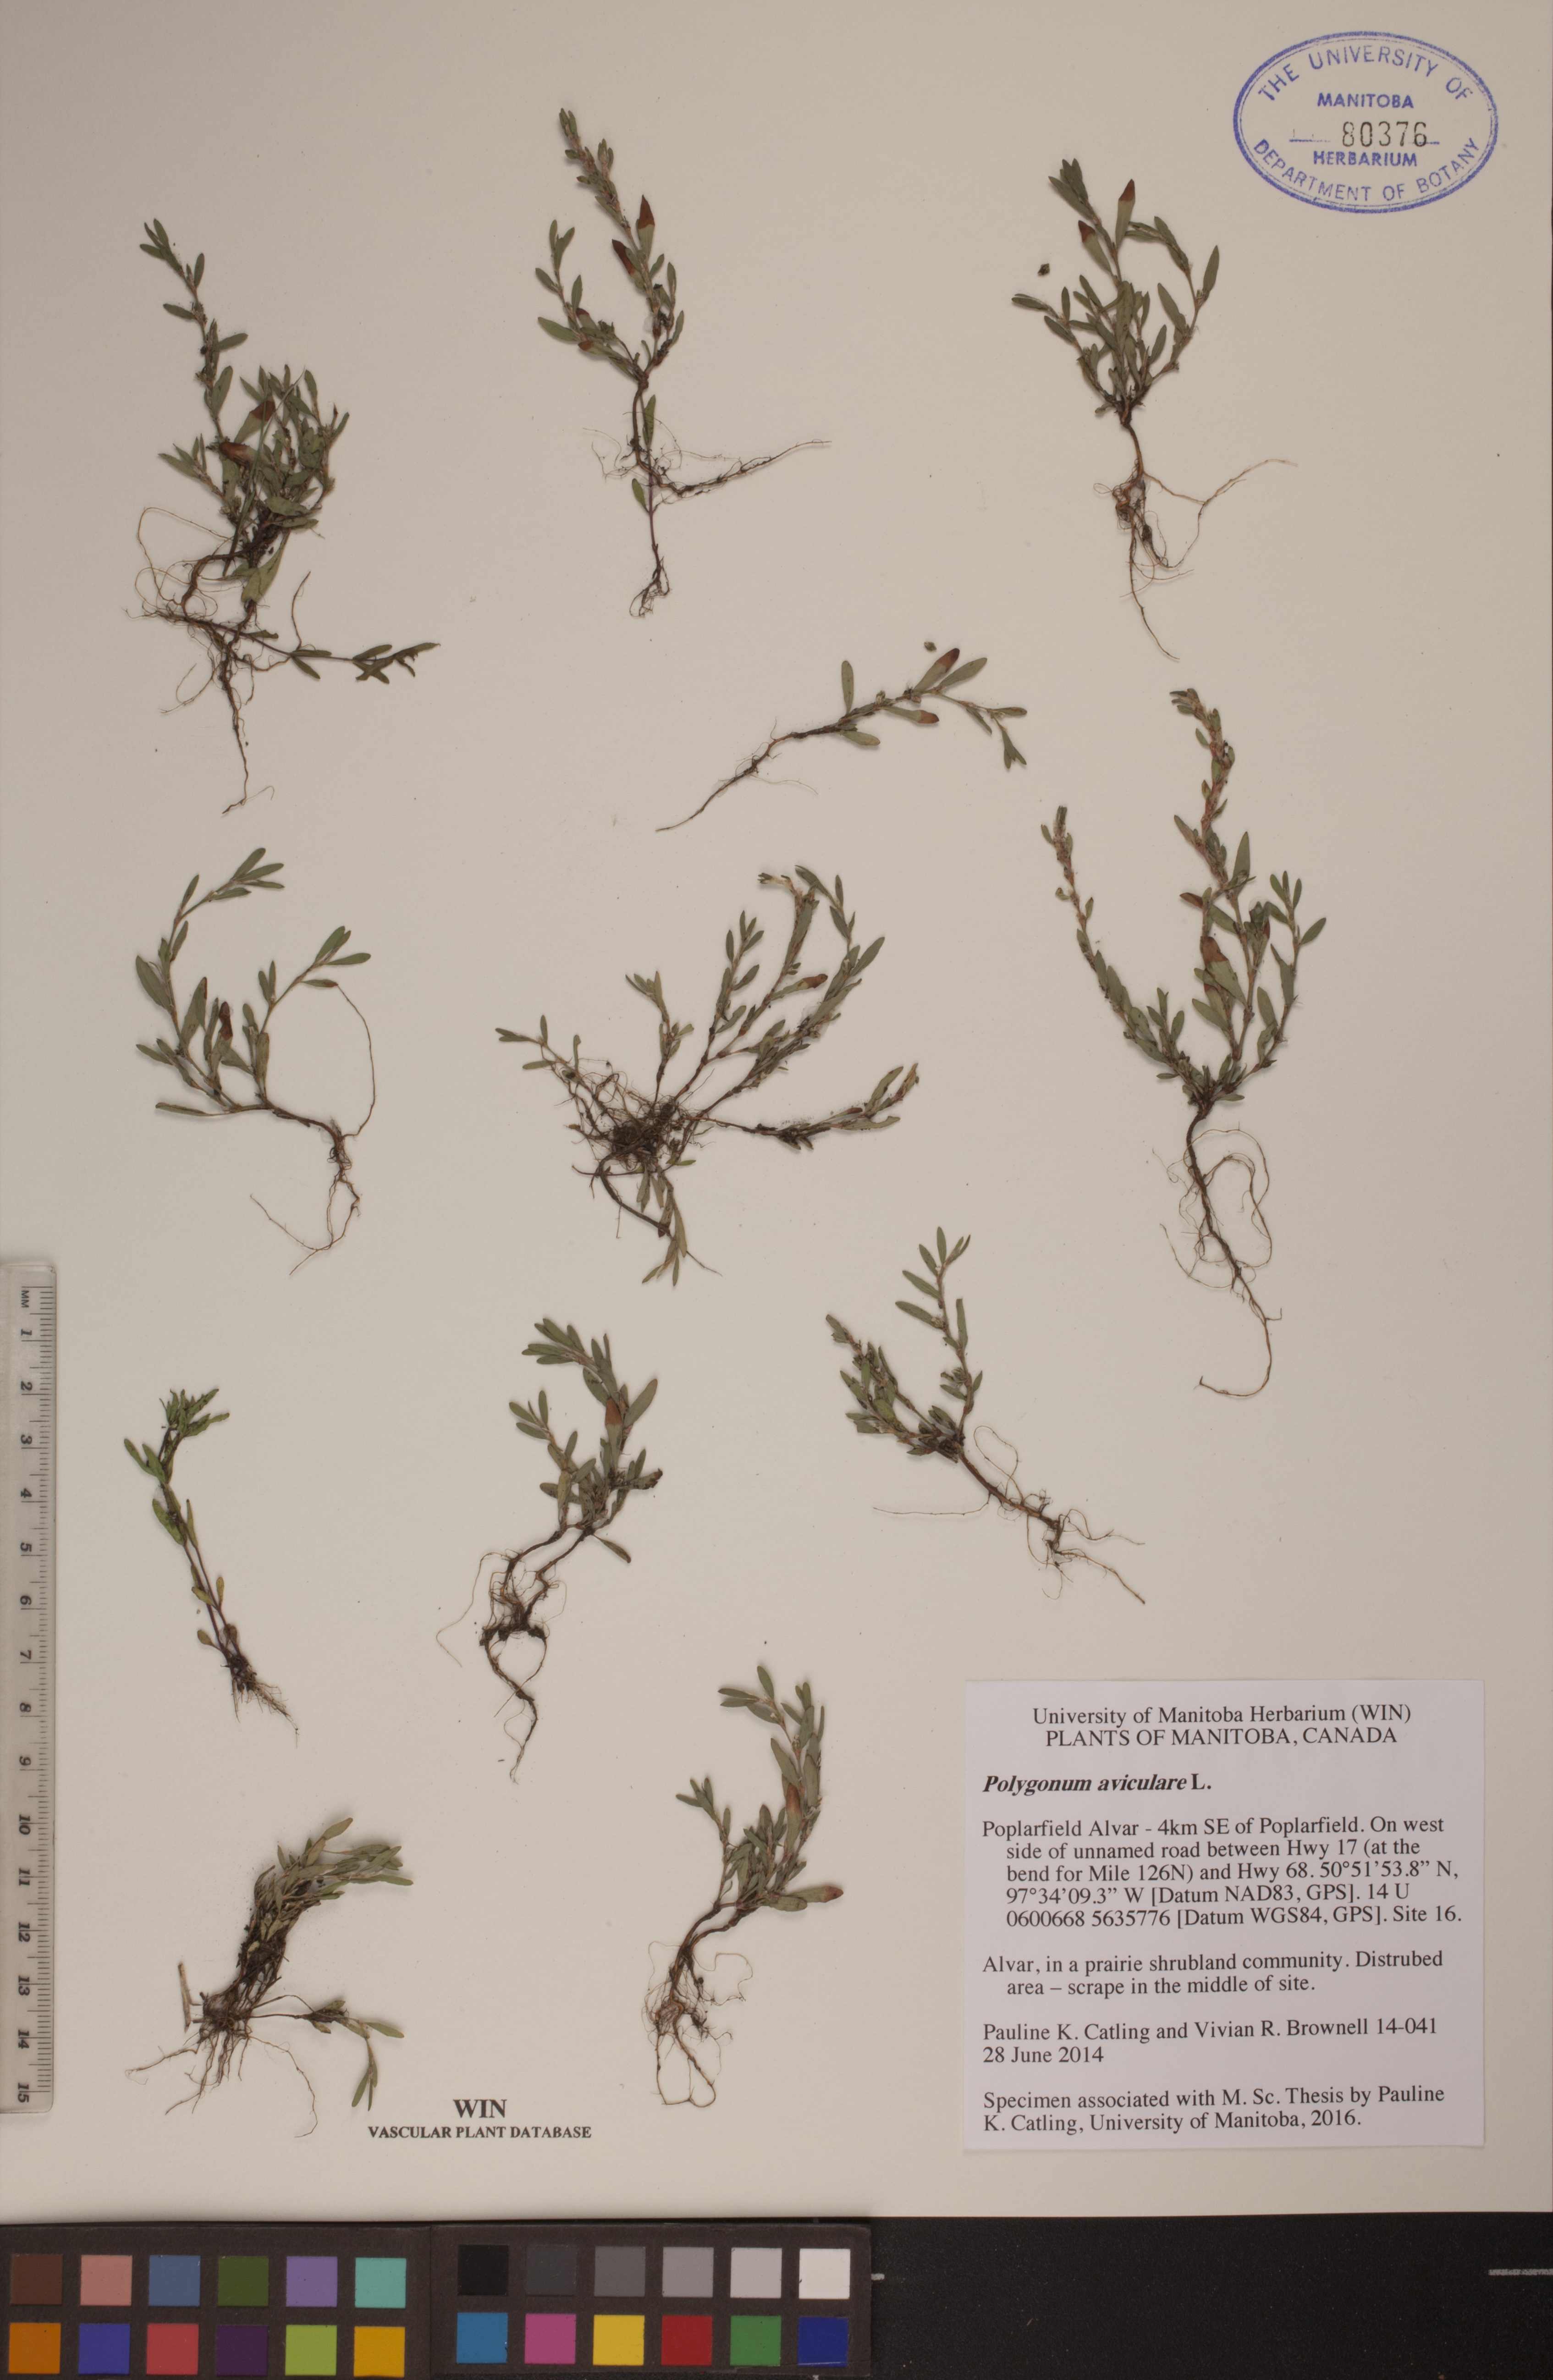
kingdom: Plantae
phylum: Tracheophyta
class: Magnoliopsida
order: Caryophyllales
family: Polygonaceae
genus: Polygonum
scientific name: Polygonum aviculare
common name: Prostrate knotweed
